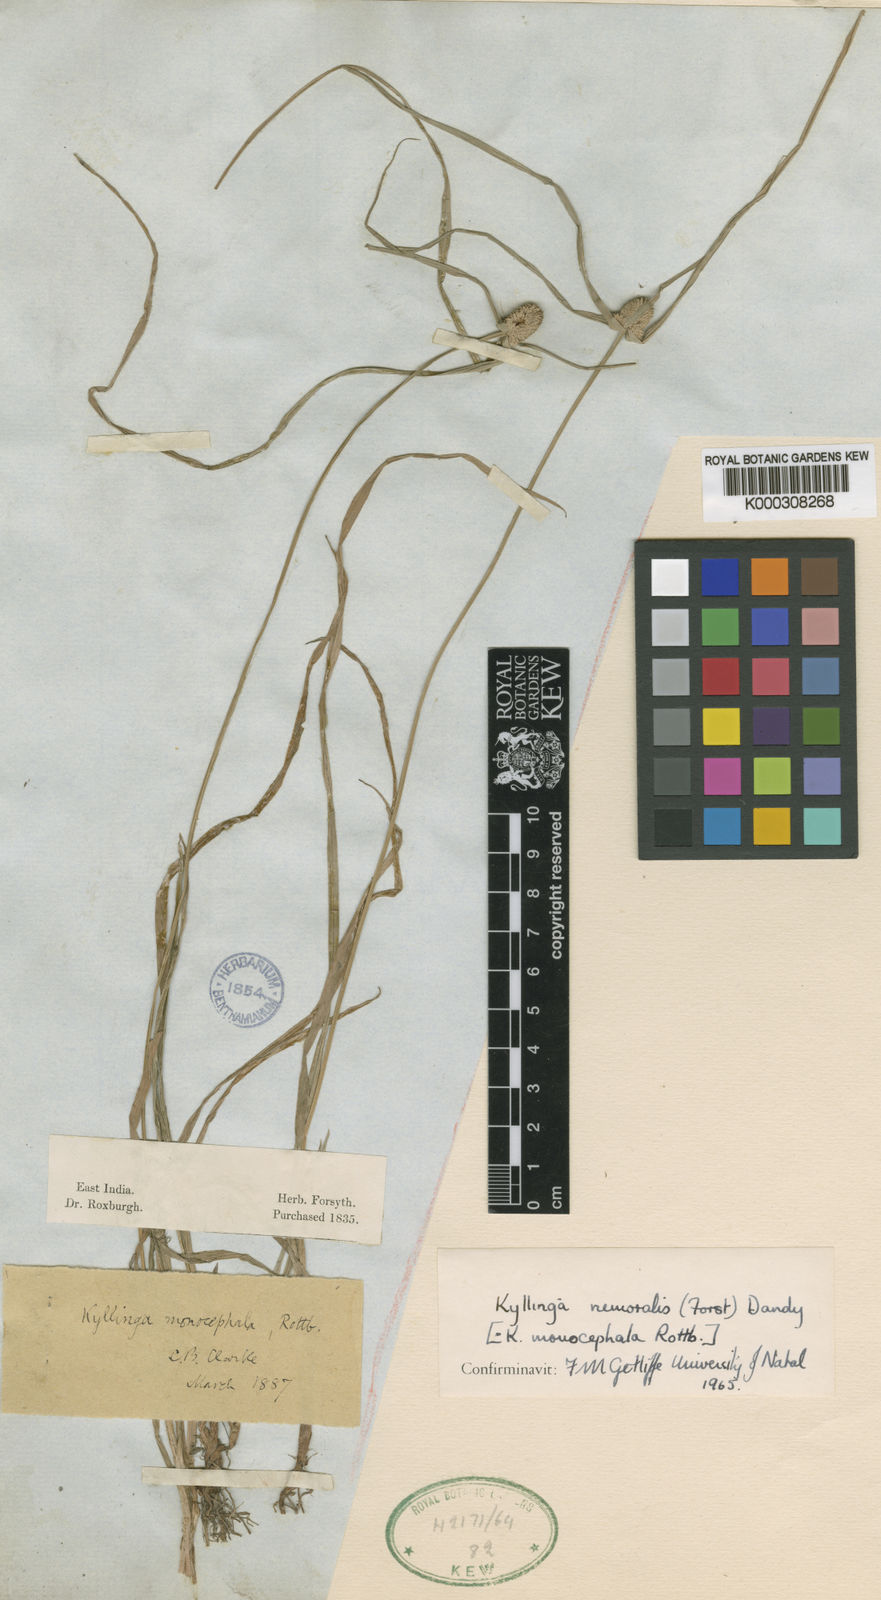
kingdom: Plantae
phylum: Tracheophyta
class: Liliopsida
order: Poales
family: Cyperaceae
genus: Cyperus
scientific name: Cyperus mindorensis
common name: Flatsedge
